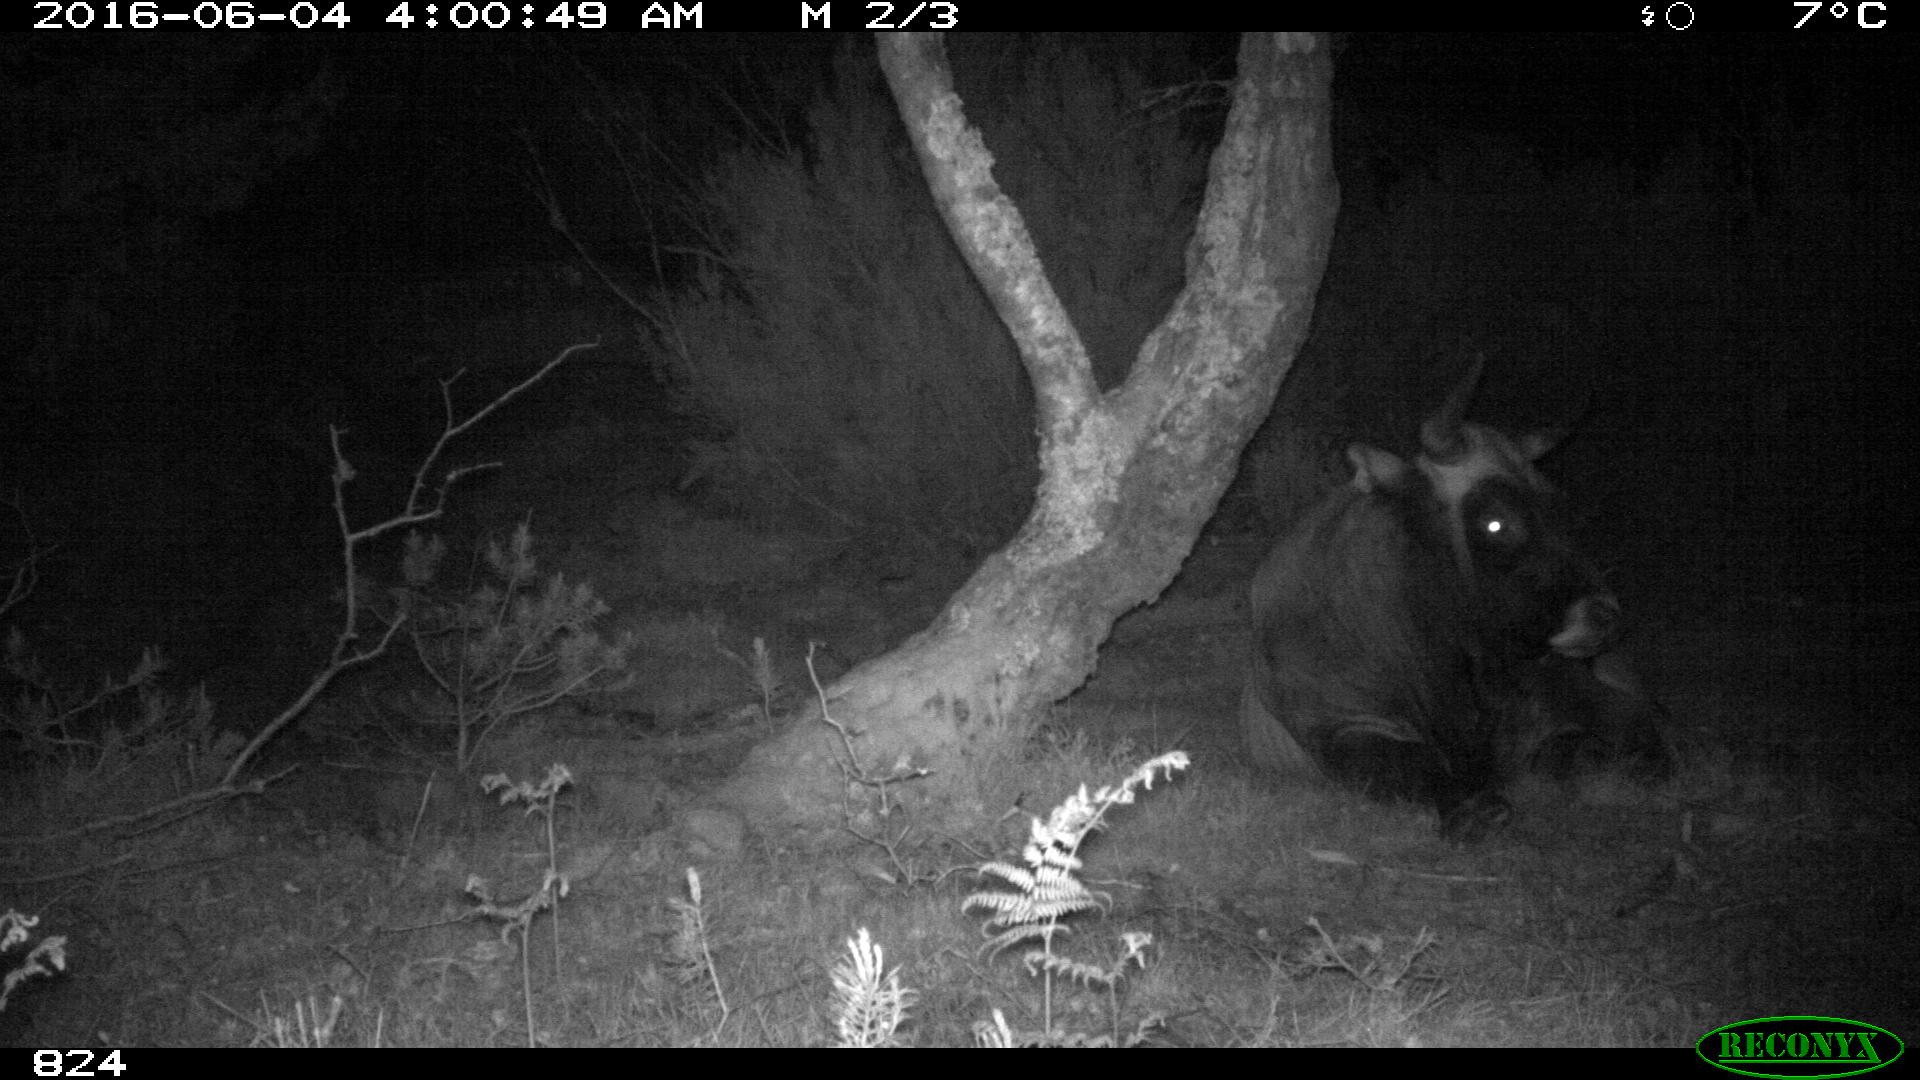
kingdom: Animalia
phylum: Chordata
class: Mammalia
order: Artiodactyla
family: Bovidae
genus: Bos
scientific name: Bos taurus
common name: Domesticated cattle
